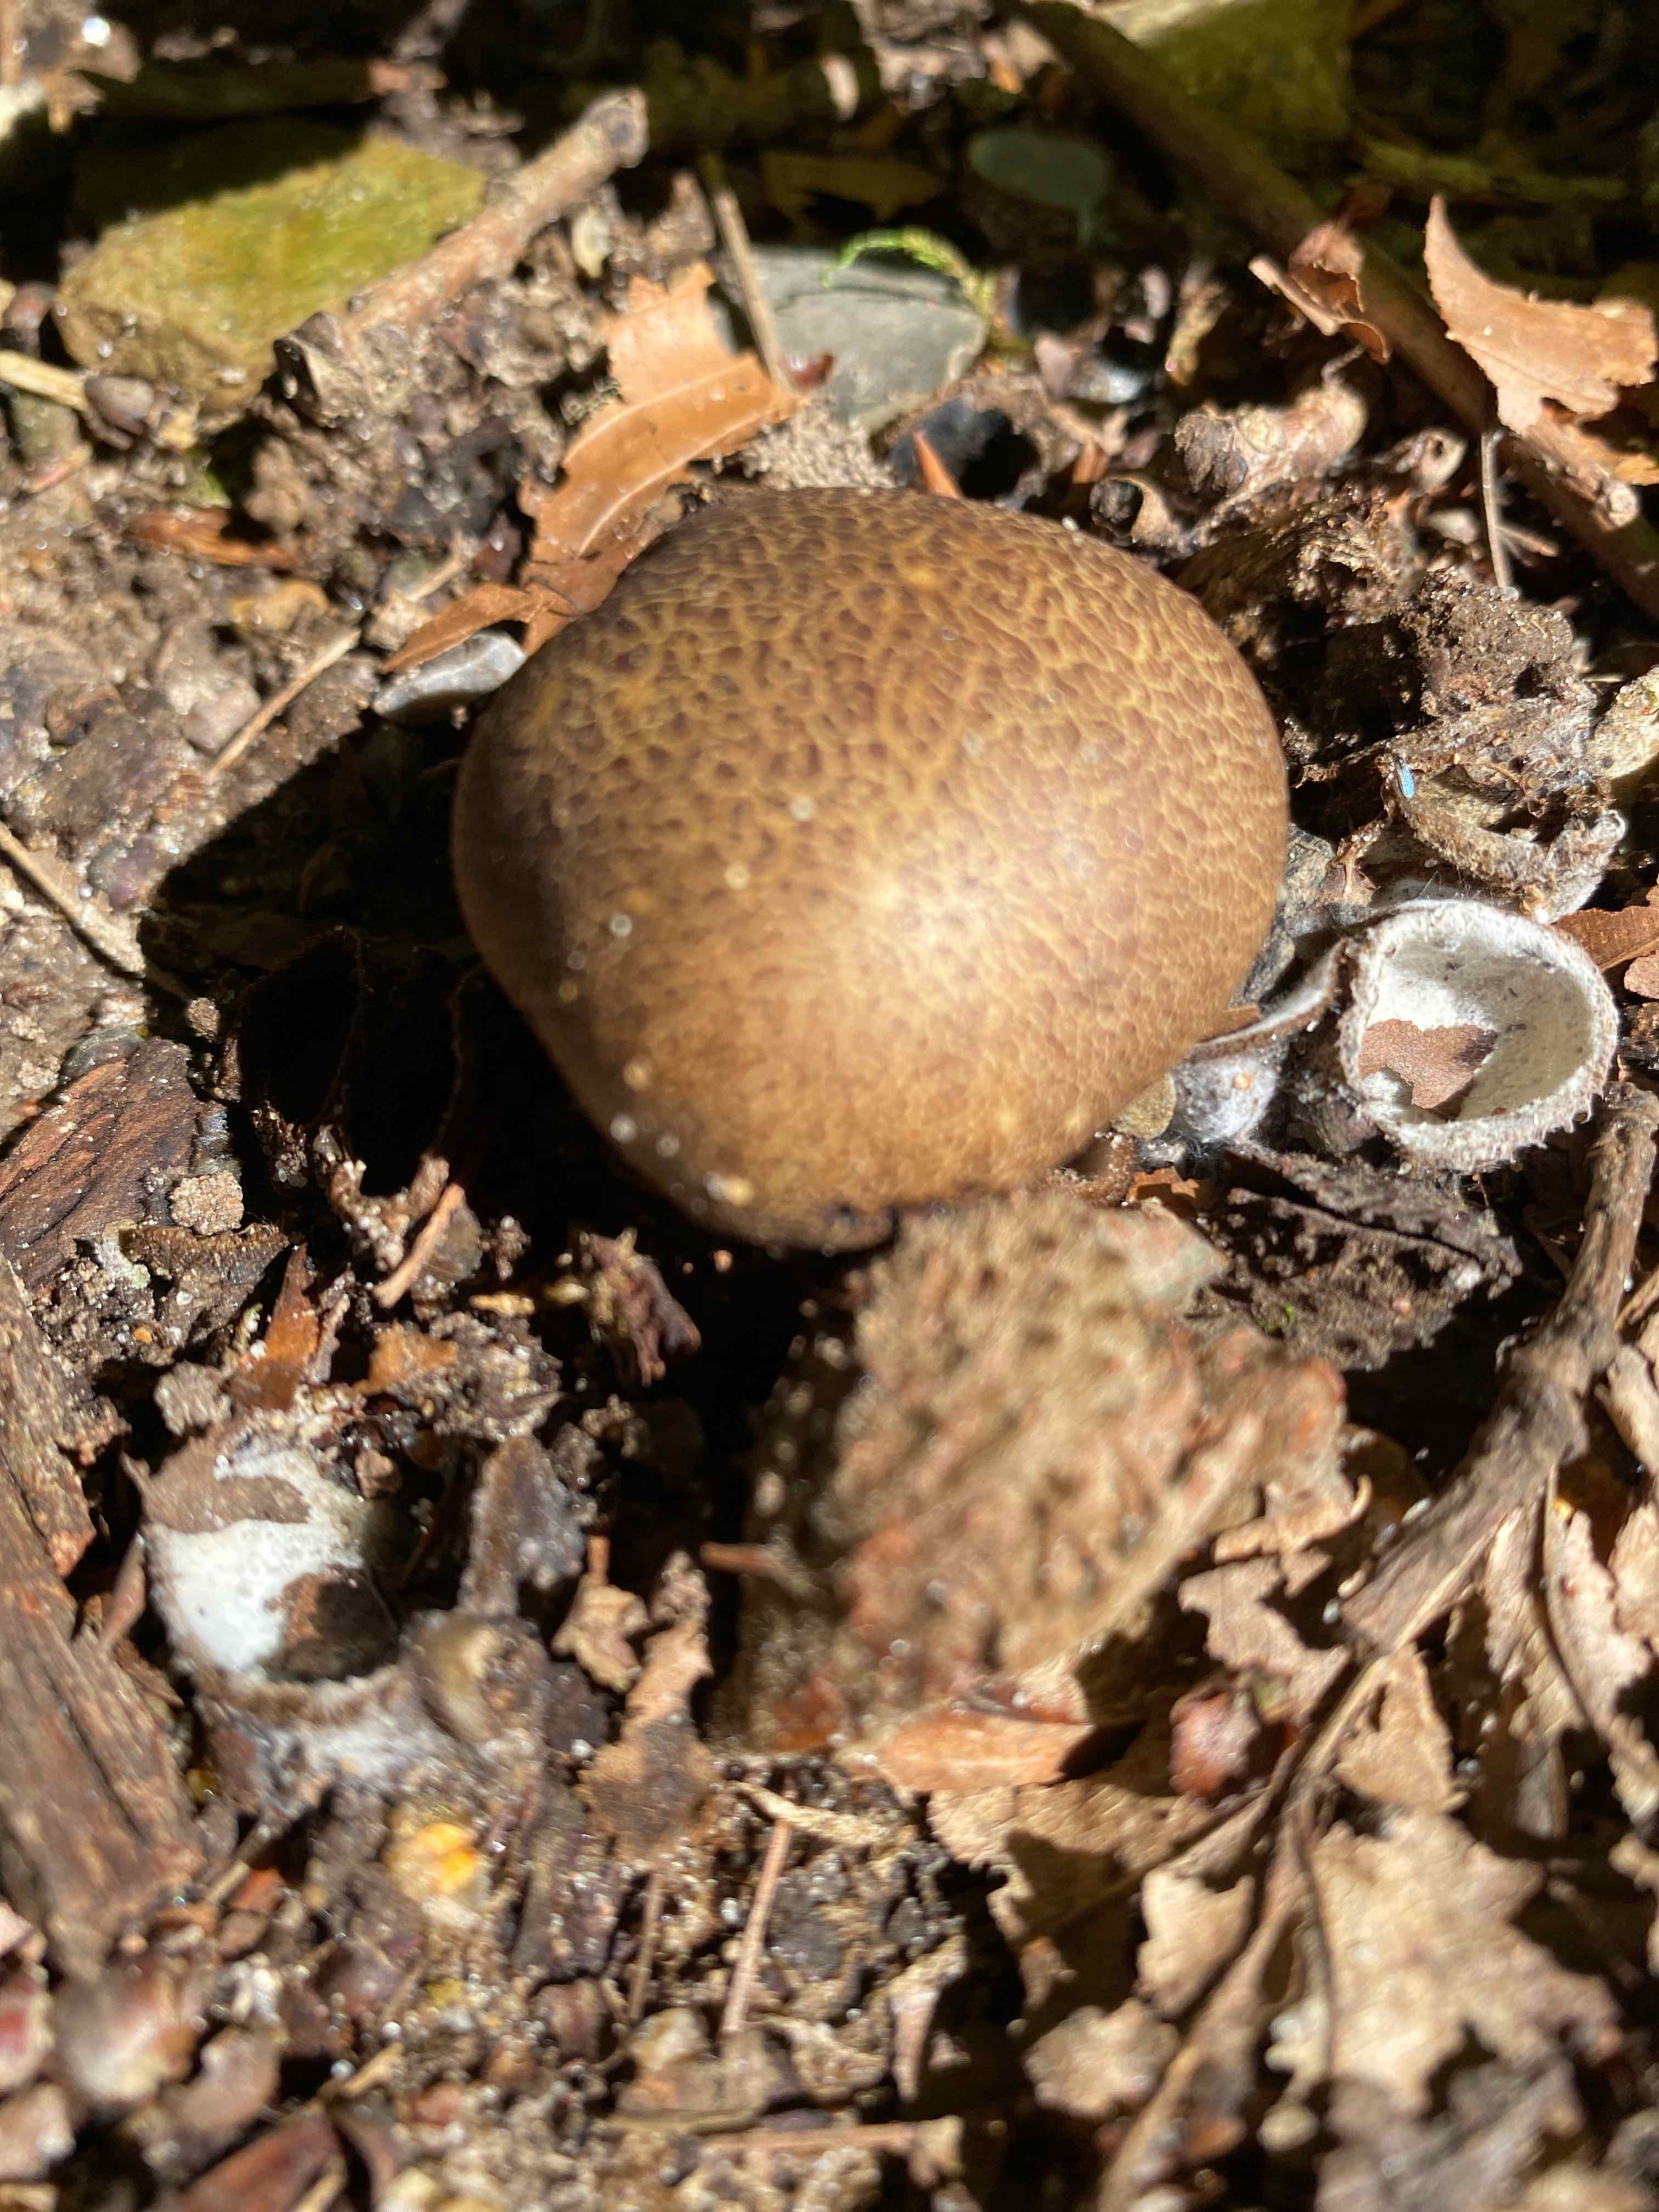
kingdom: Fungi
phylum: Basidiomycota
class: Agaricomycetes
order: Boletales
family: Sclerodermataceae
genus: Scleroderma
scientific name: Scleroderma areolatum
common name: plettet bruskbold
